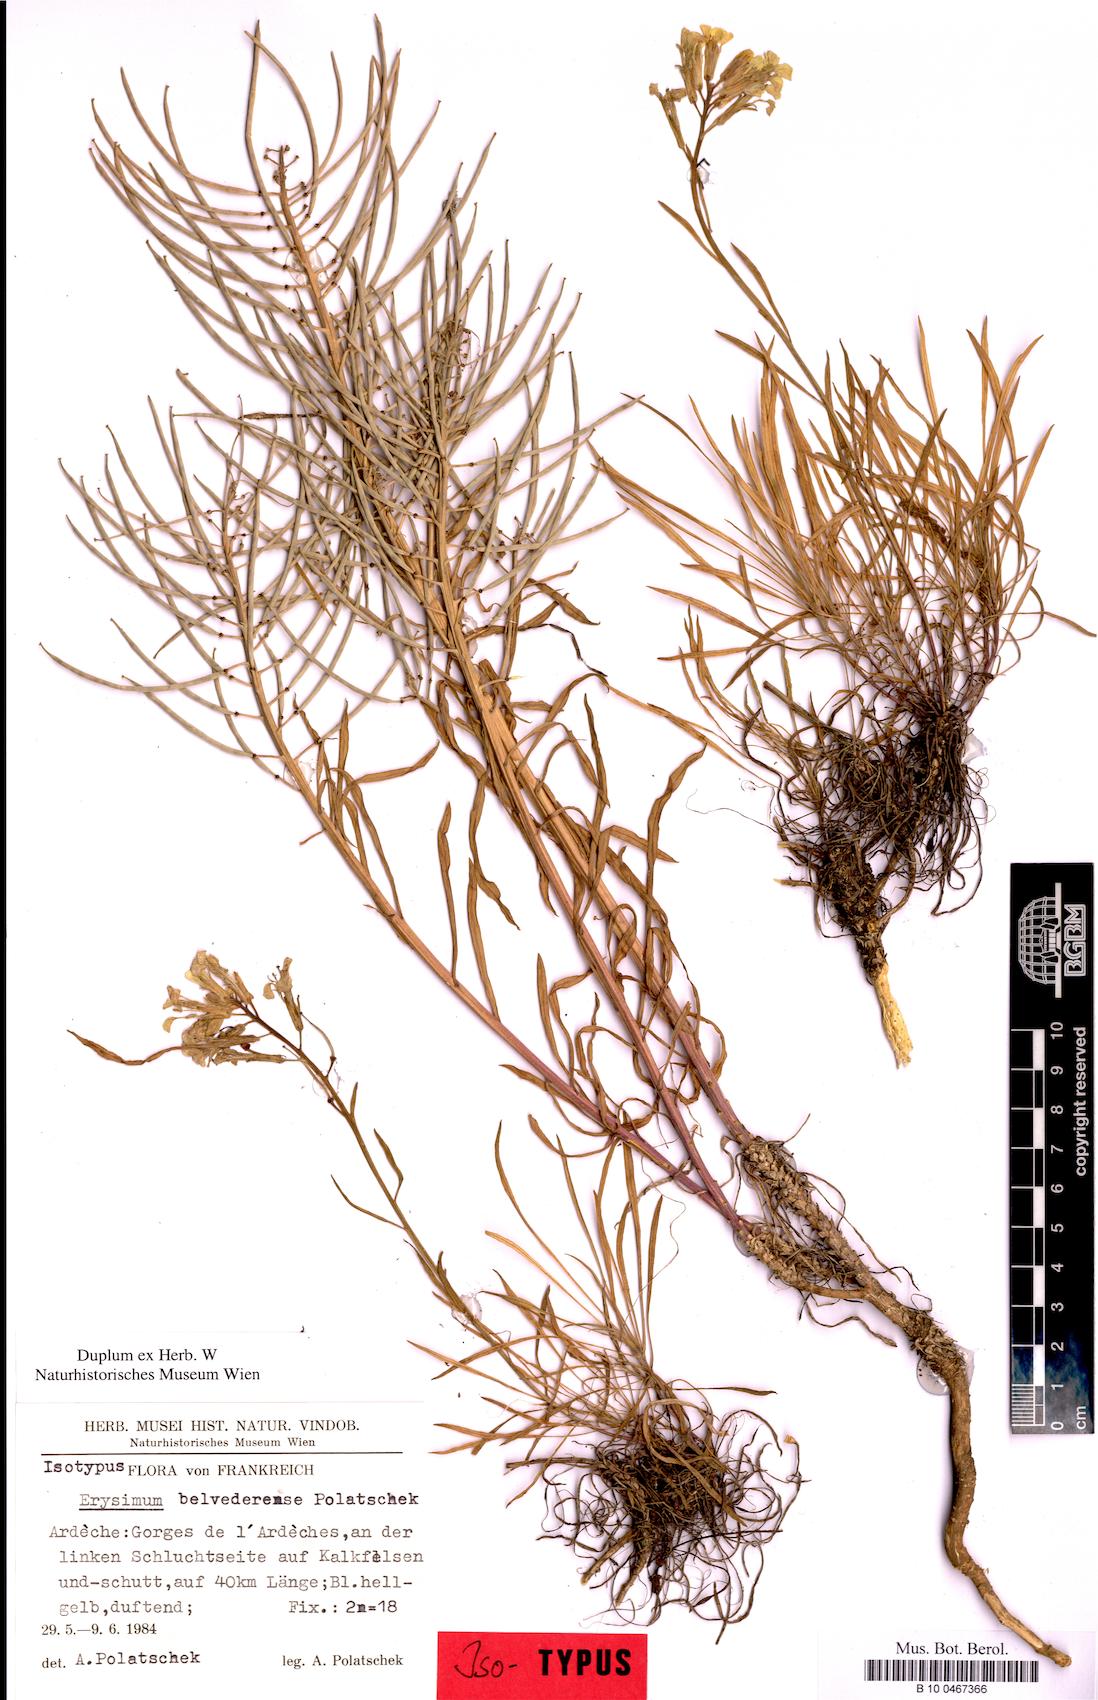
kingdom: Plantae
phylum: Tracheophyta
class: Magnoliopsida
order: Brassicales
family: Brassicaceae
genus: Erysimum
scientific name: Erysimum belvederense
